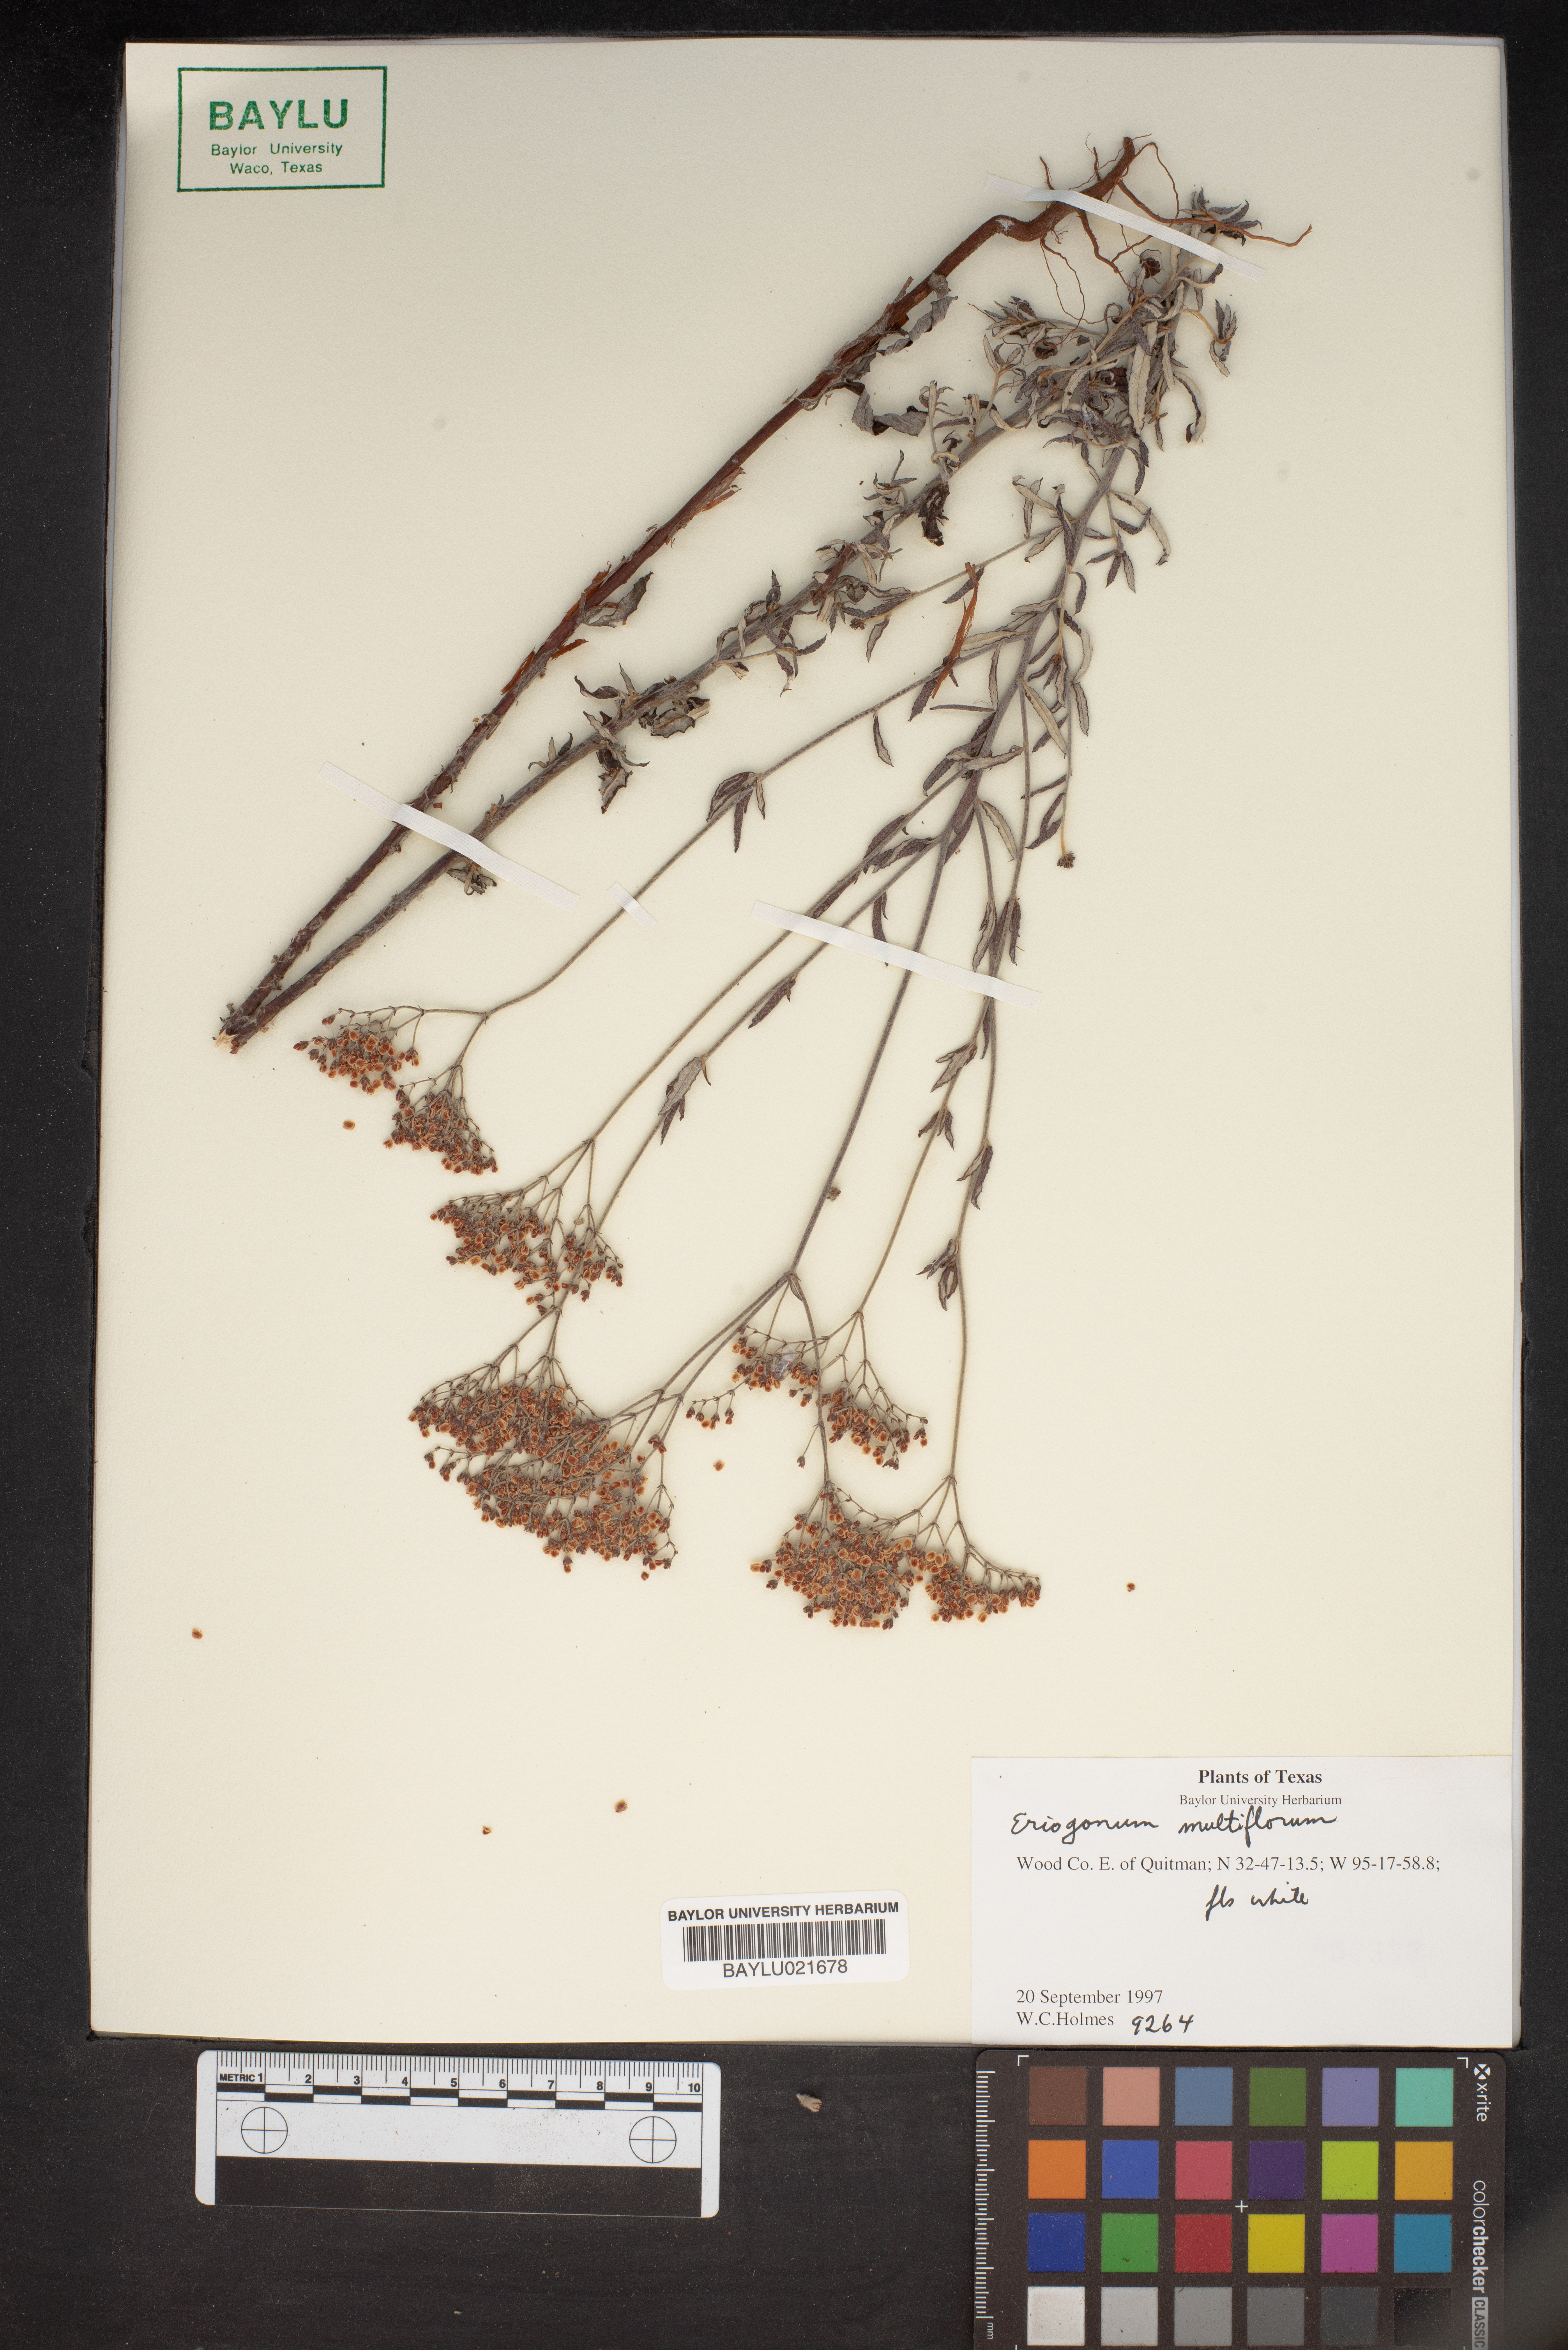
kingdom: Plantae
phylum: Tracheophyta
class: Magnoliopsida
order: Caryophyllales
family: Polygonaceae
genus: Eriogonum
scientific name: Eriogonum multiflorum
